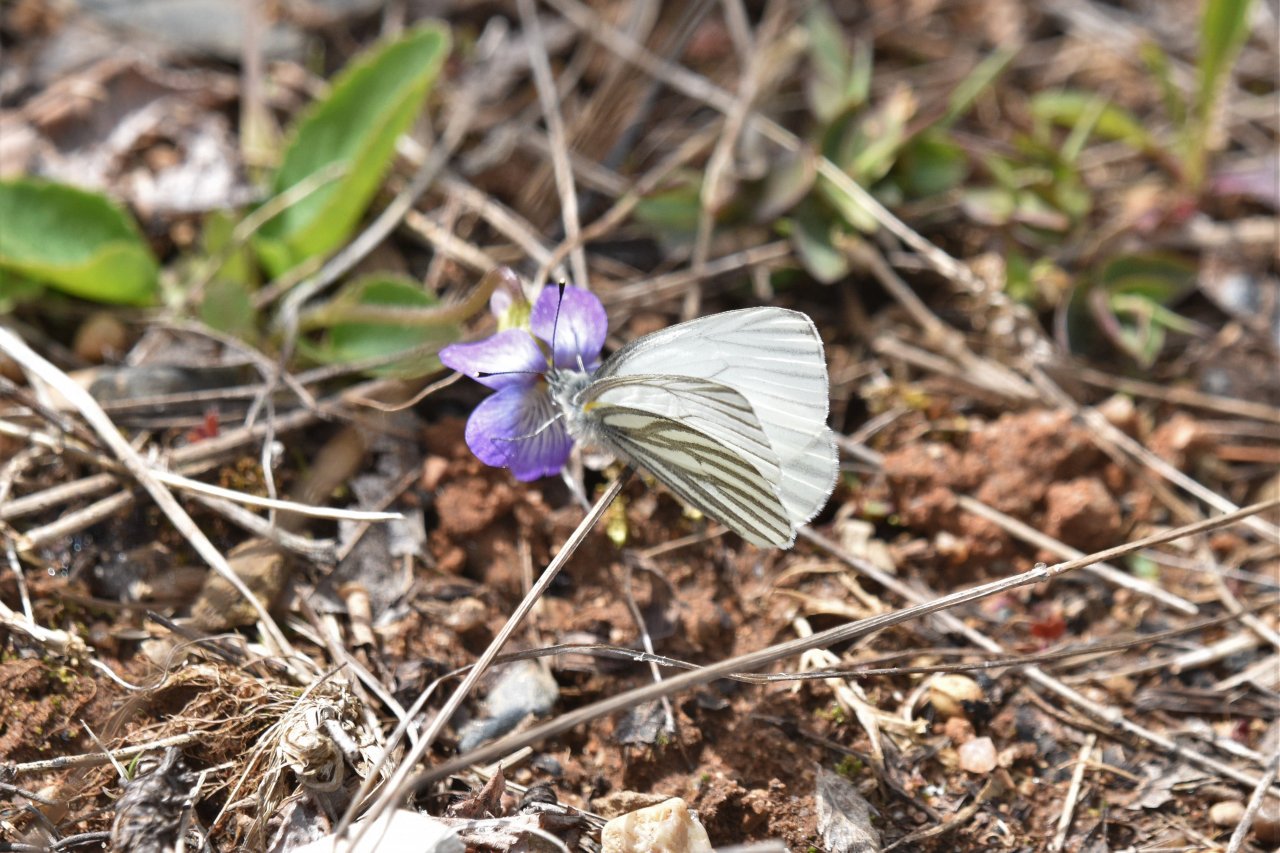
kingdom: Animalia
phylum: Arthropoda
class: Insecta
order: Lepidoptera
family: Pieridae
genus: Pieris
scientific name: Pieris oleracea
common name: Mustard White
